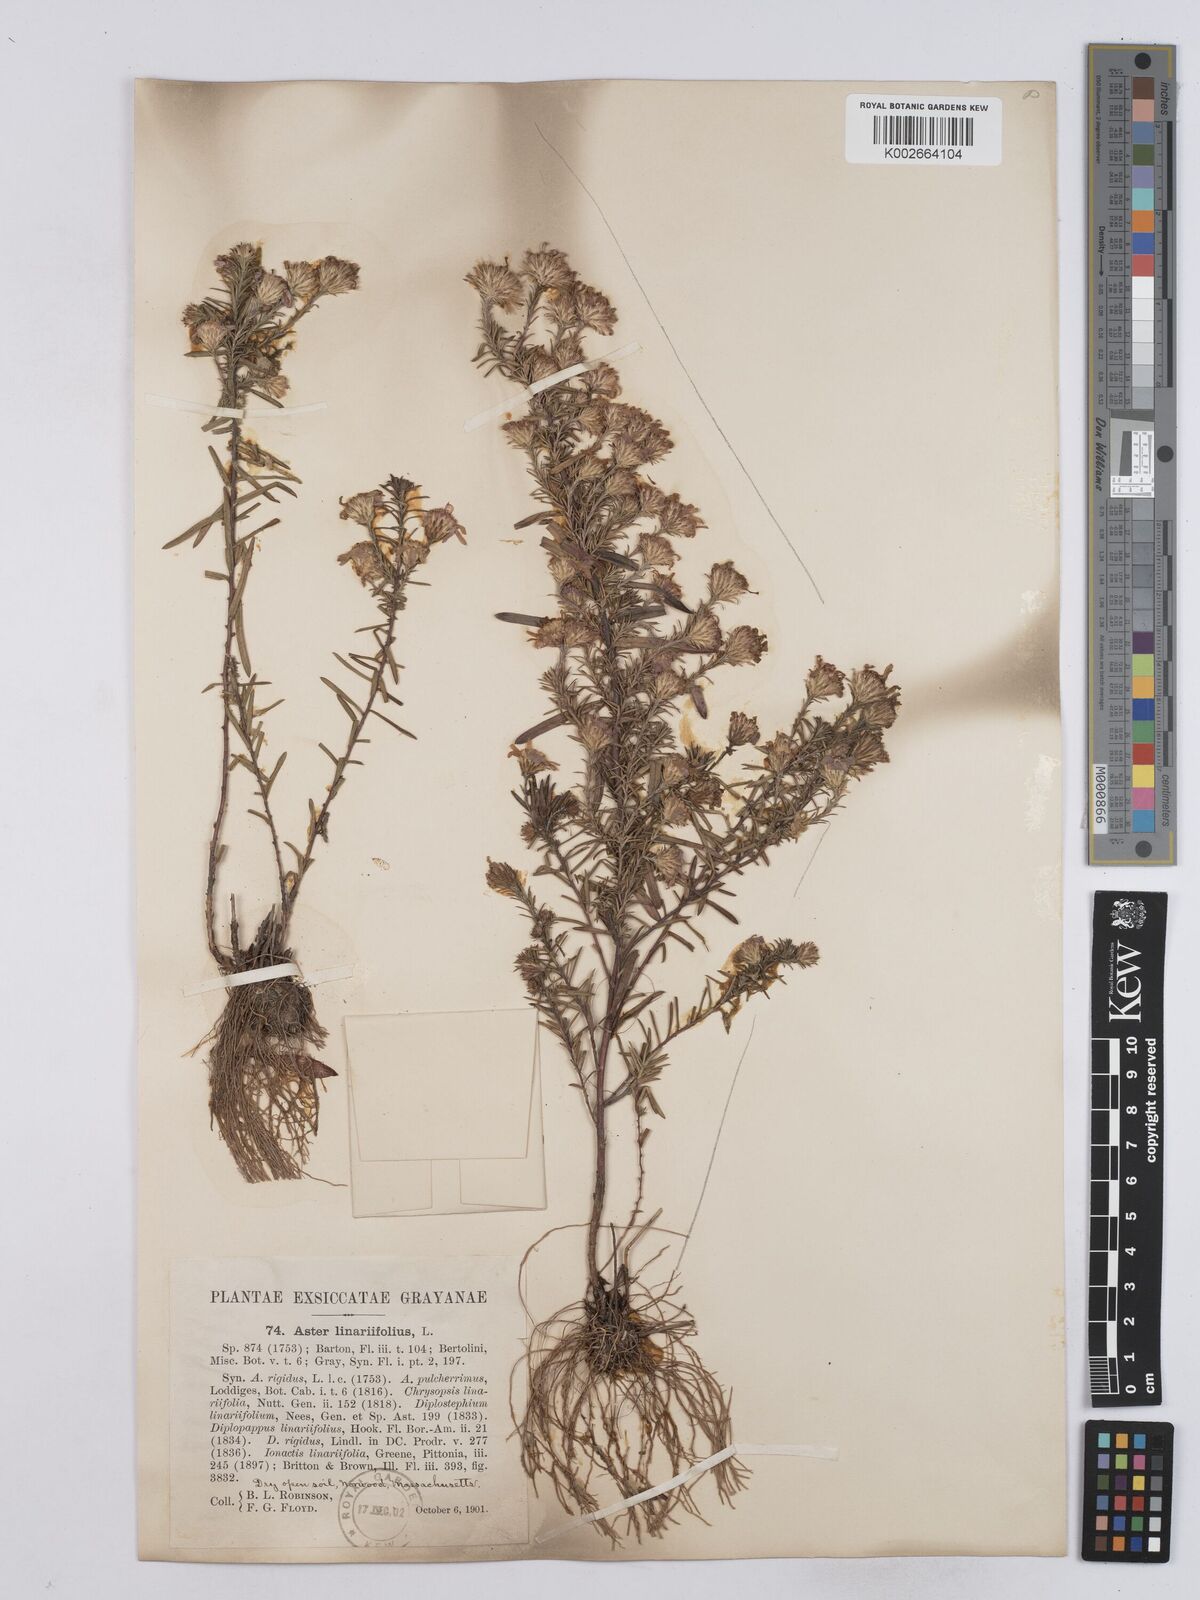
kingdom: Plantae
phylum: Tracheophyta
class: Magnoliopsida
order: Asterales
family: Asteraceae
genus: Ionactis
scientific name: Ionactis linariifolia
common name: Flax-leaf aster
